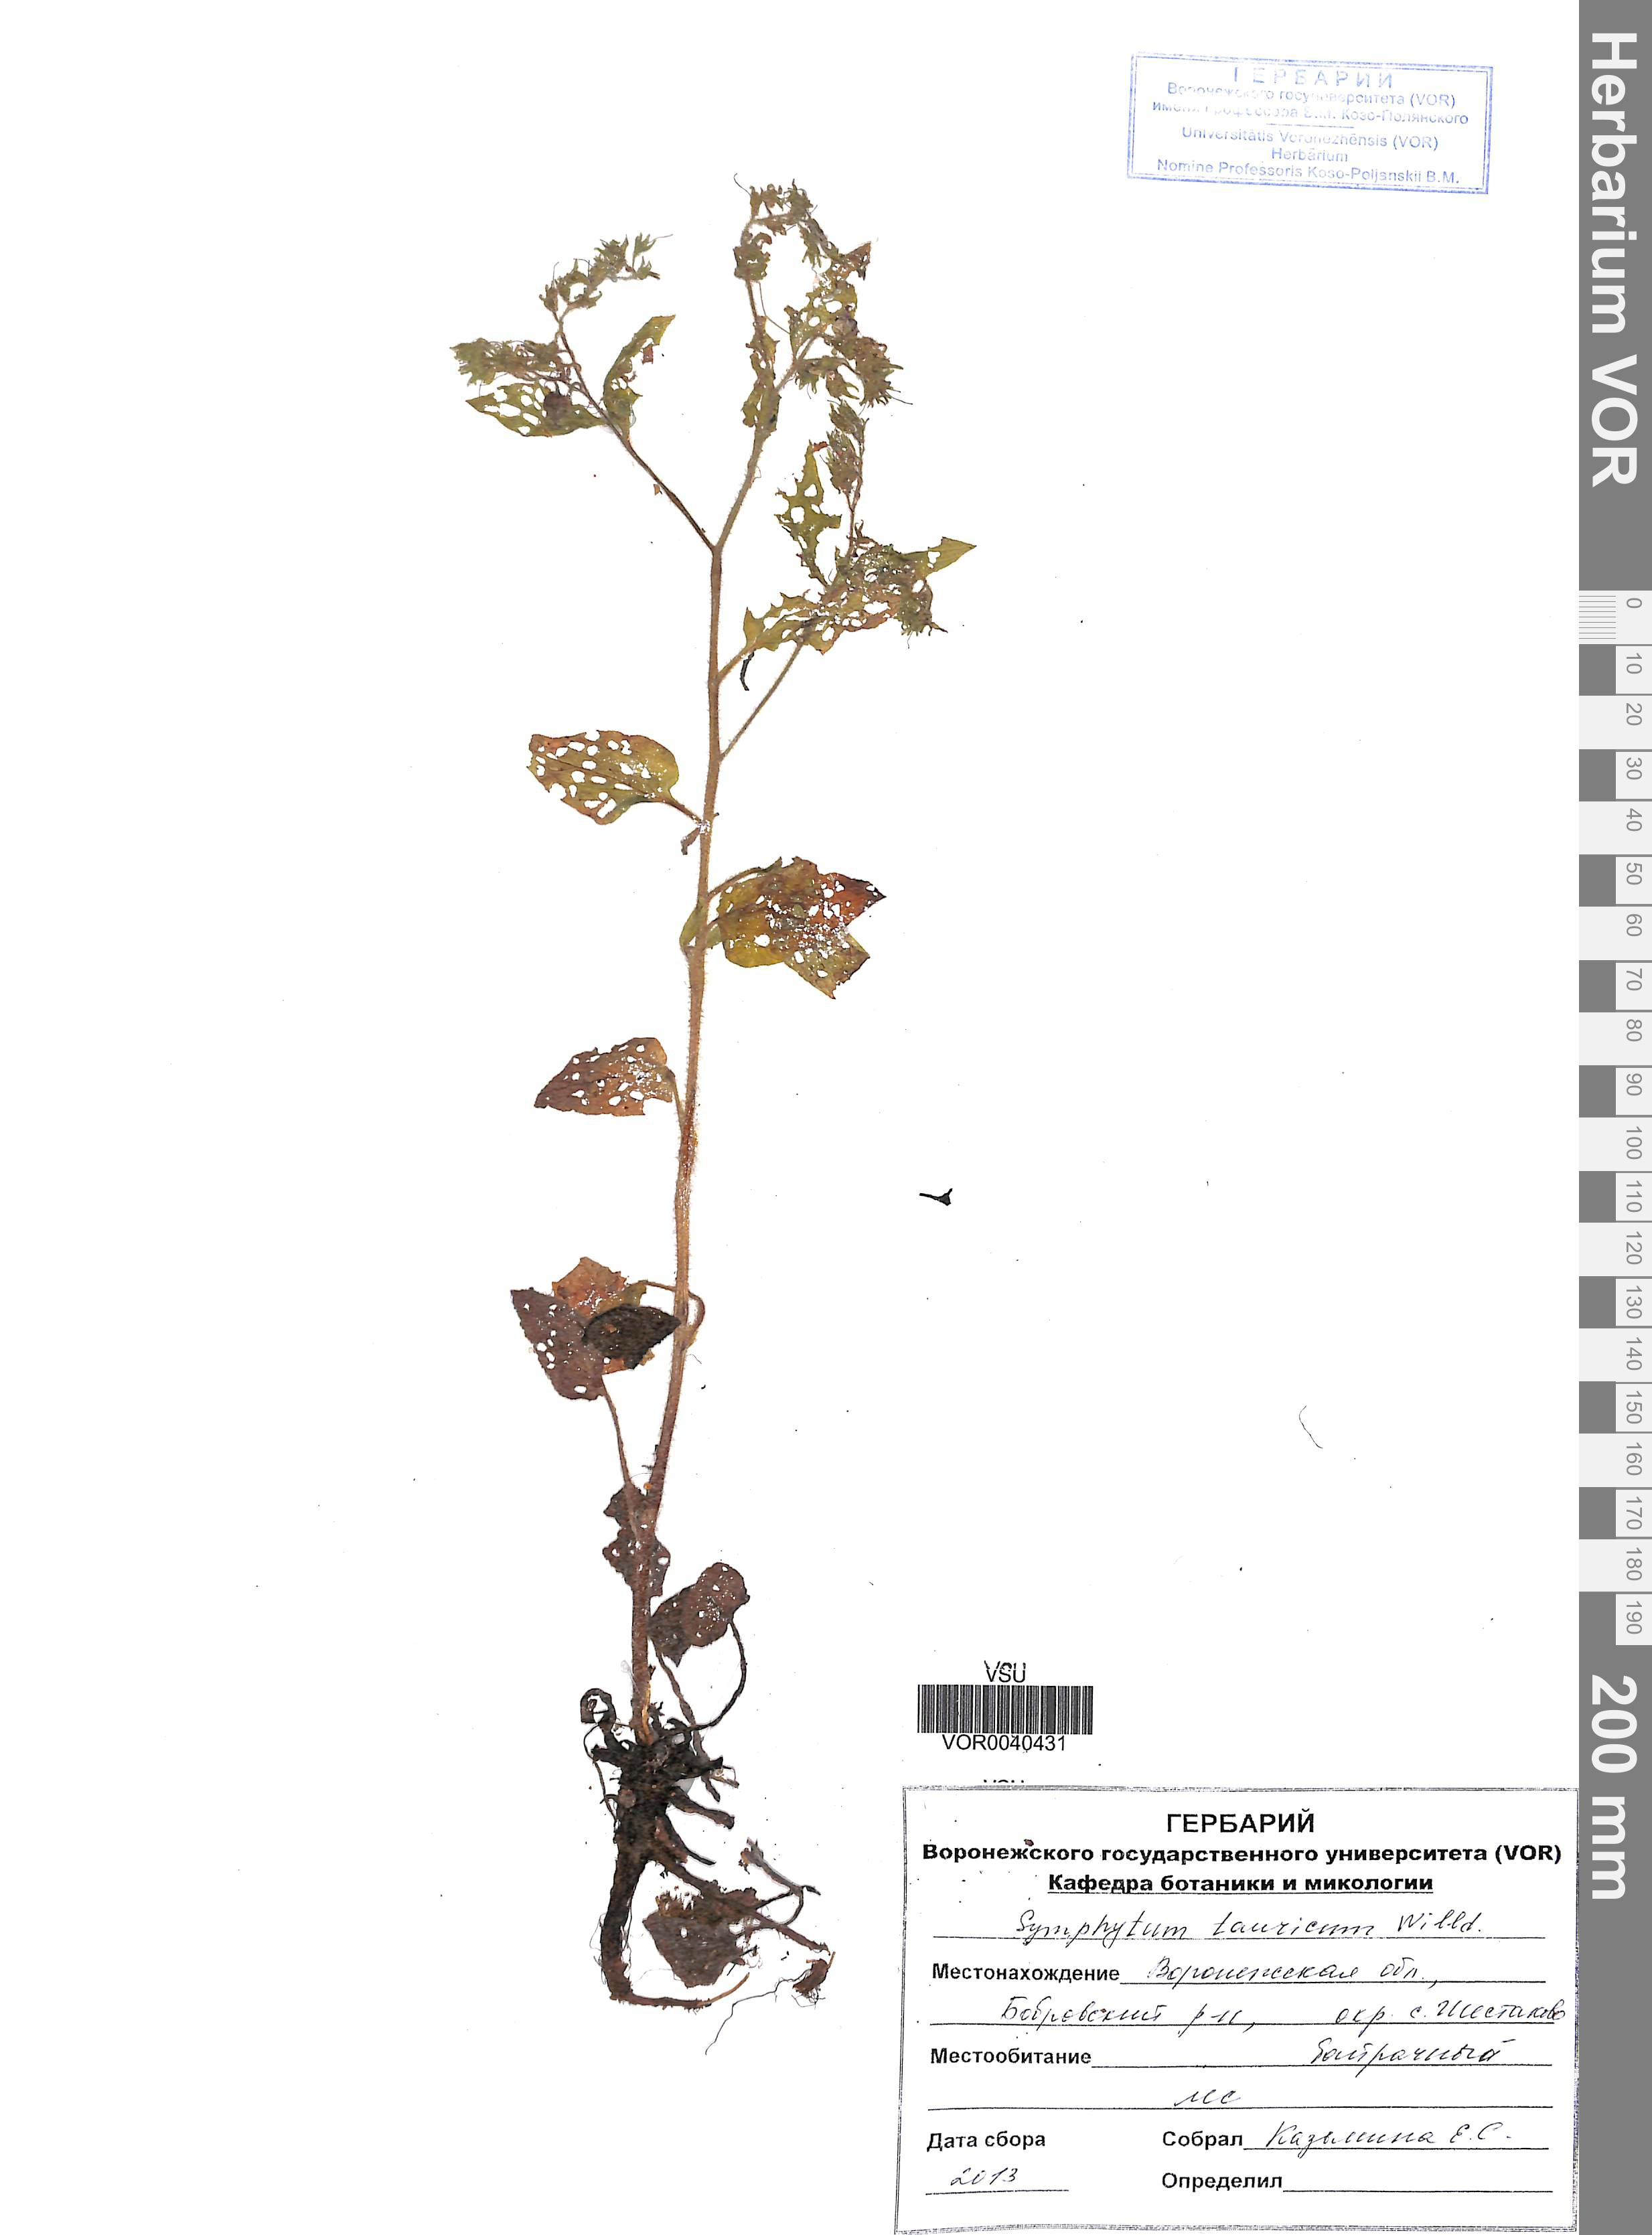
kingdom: Plantae
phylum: Tracheophyta
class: Magnoliopsida
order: Boraginales
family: Boraginaceae
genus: Symphytum
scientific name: Symphytum tauricum
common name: Crimean comfrey
